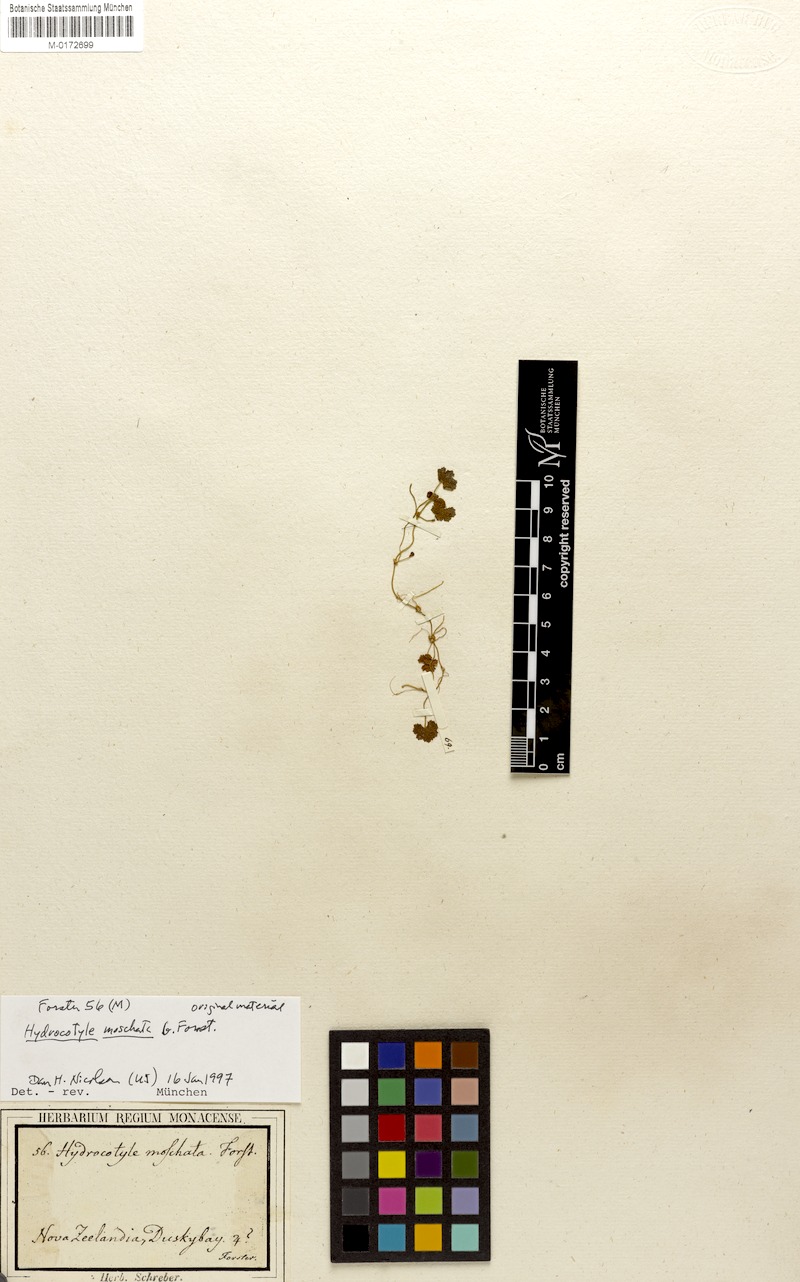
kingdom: Plantae
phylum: Tracheophyta
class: Magnoliopsida
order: Apiales
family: Araliaceae
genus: Hydrocotyle
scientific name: Hydrocotyle moschata
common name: Hairy pennywort
